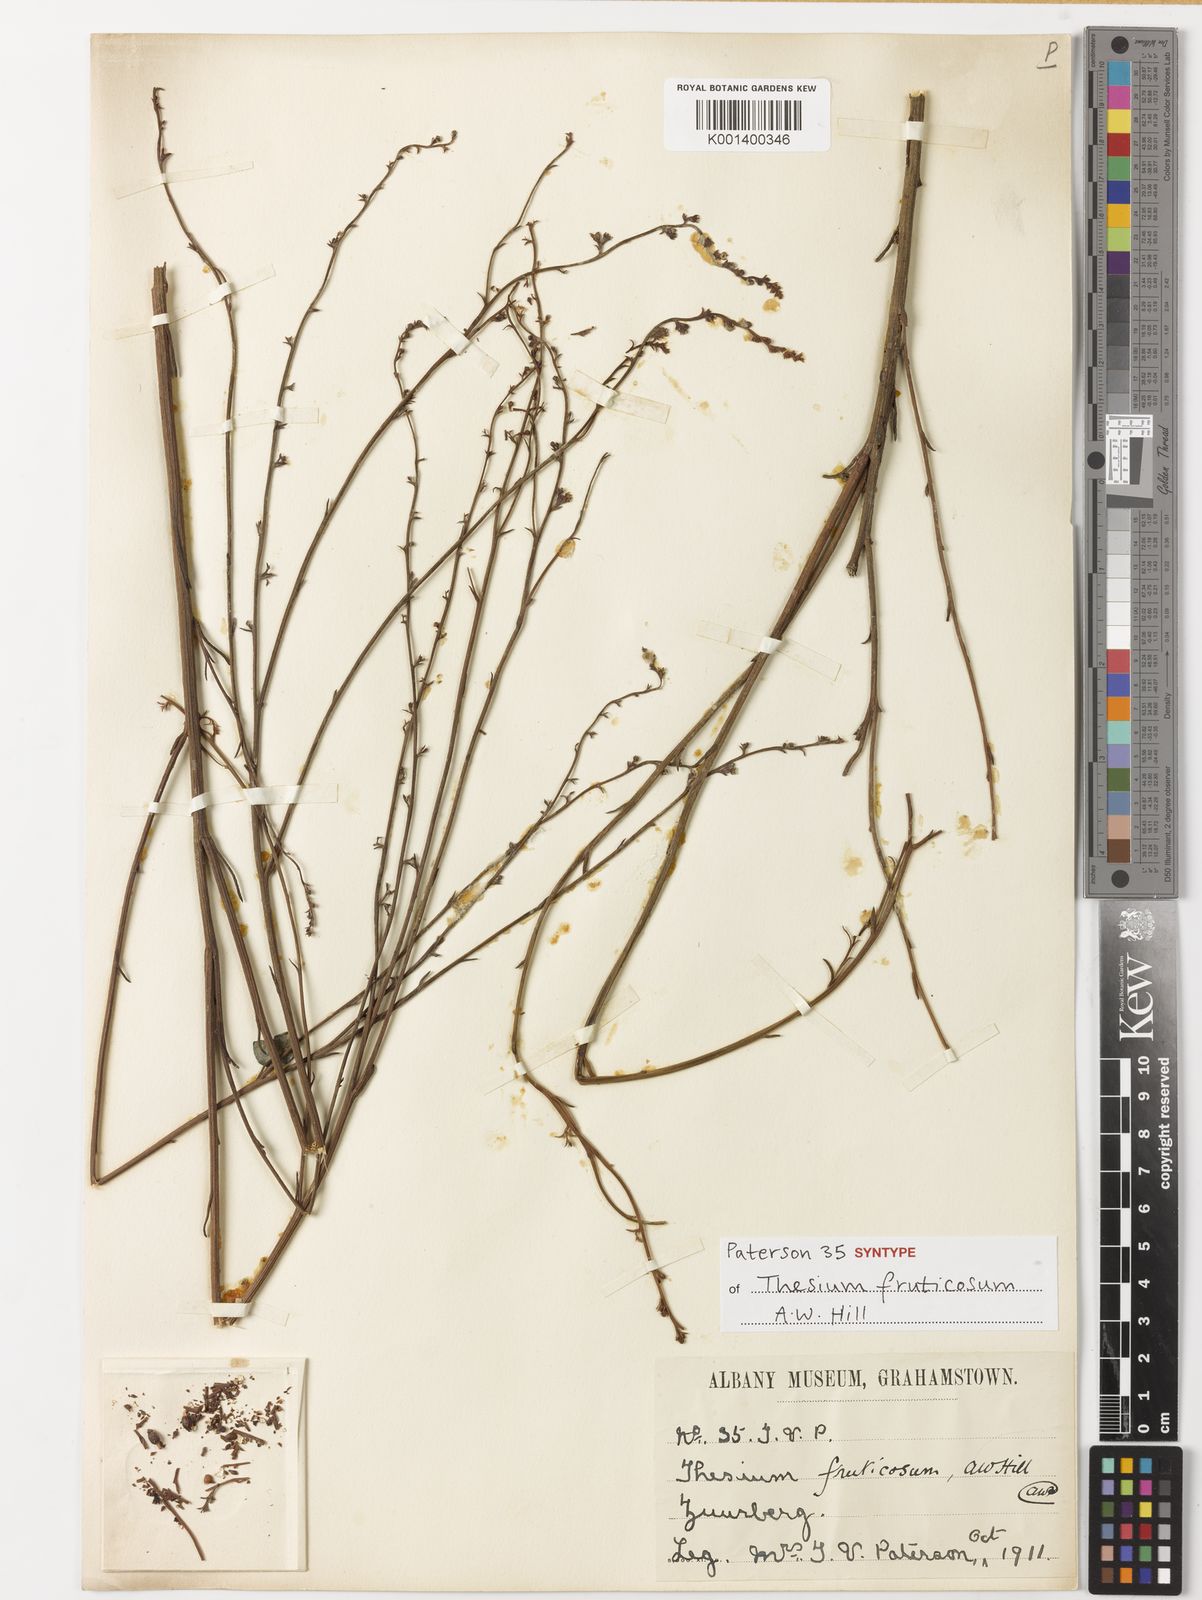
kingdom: Plantae
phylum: Tracheophyta
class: Magnoliopsida
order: Santalales
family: Thesiaceae
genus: Thesium
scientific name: Thesium fruticosum
